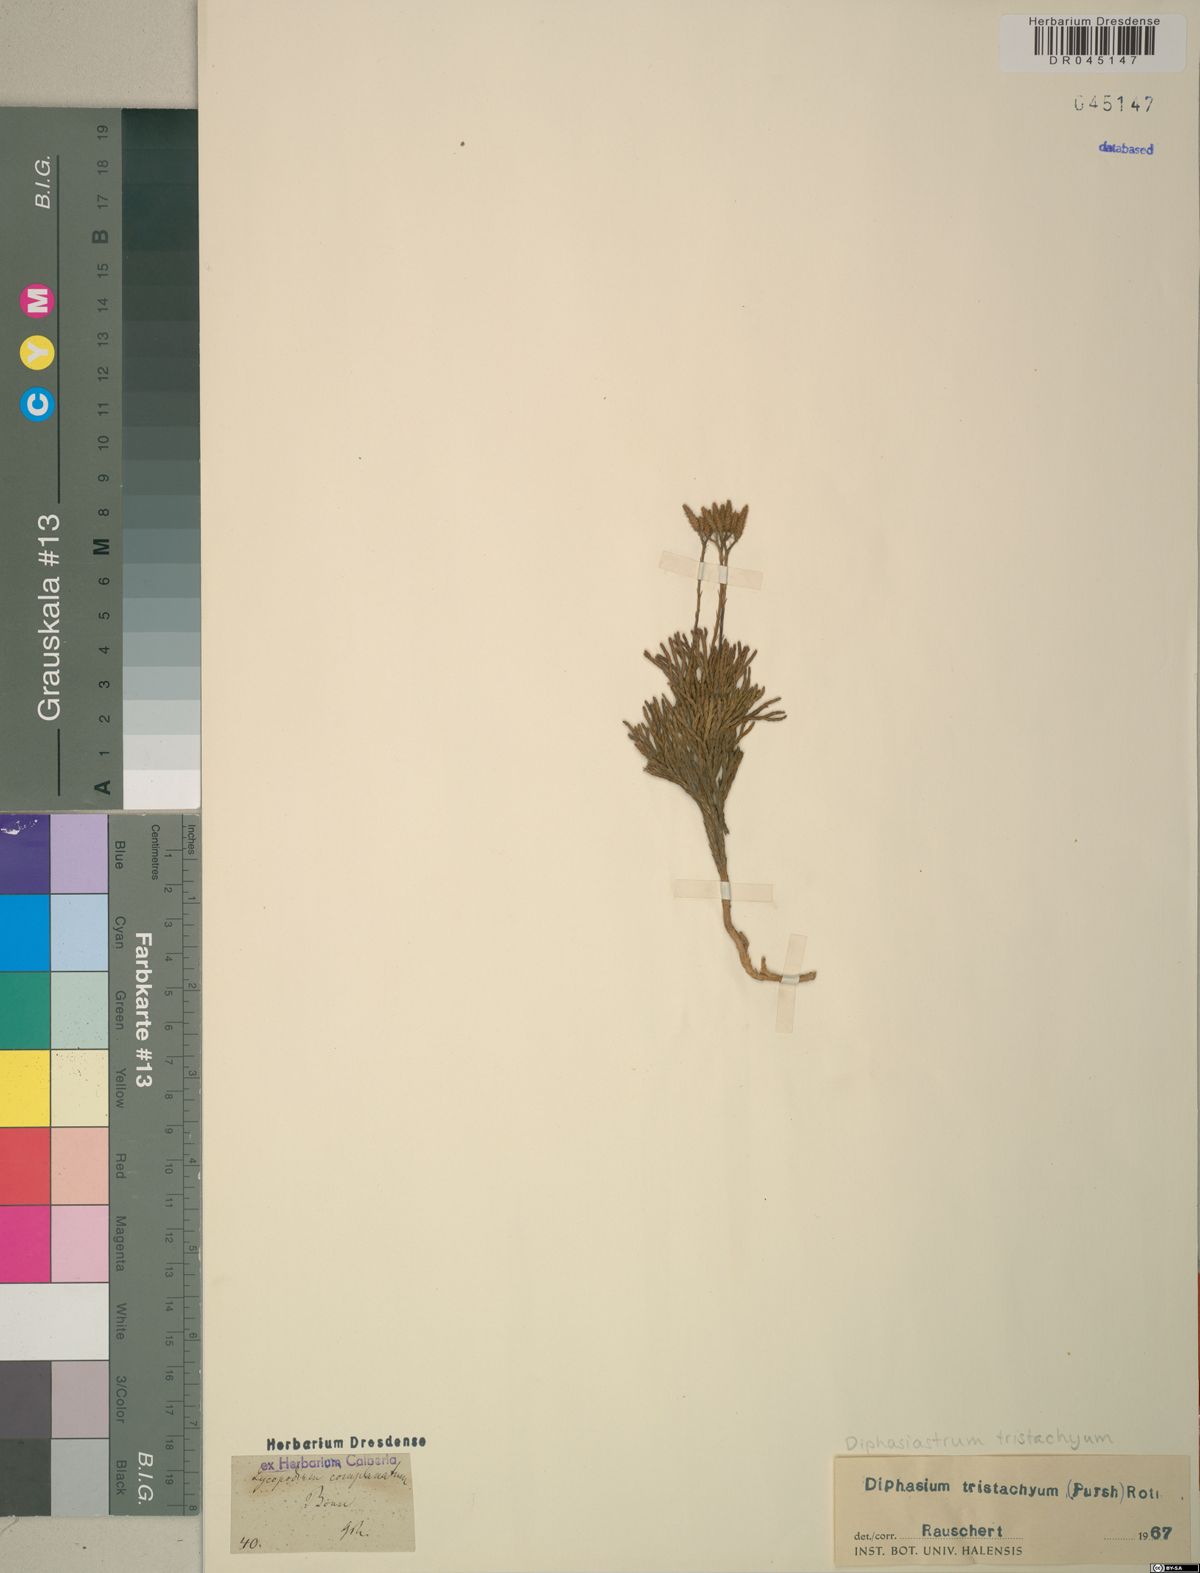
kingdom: Plantae
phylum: Tracheophyta
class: Lycopodiopsida
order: Lycopodiales
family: Lycopodiaceae
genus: Diphasiastrum
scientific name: Diphasiastrum tristachyum
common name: Blue ground-cedar
